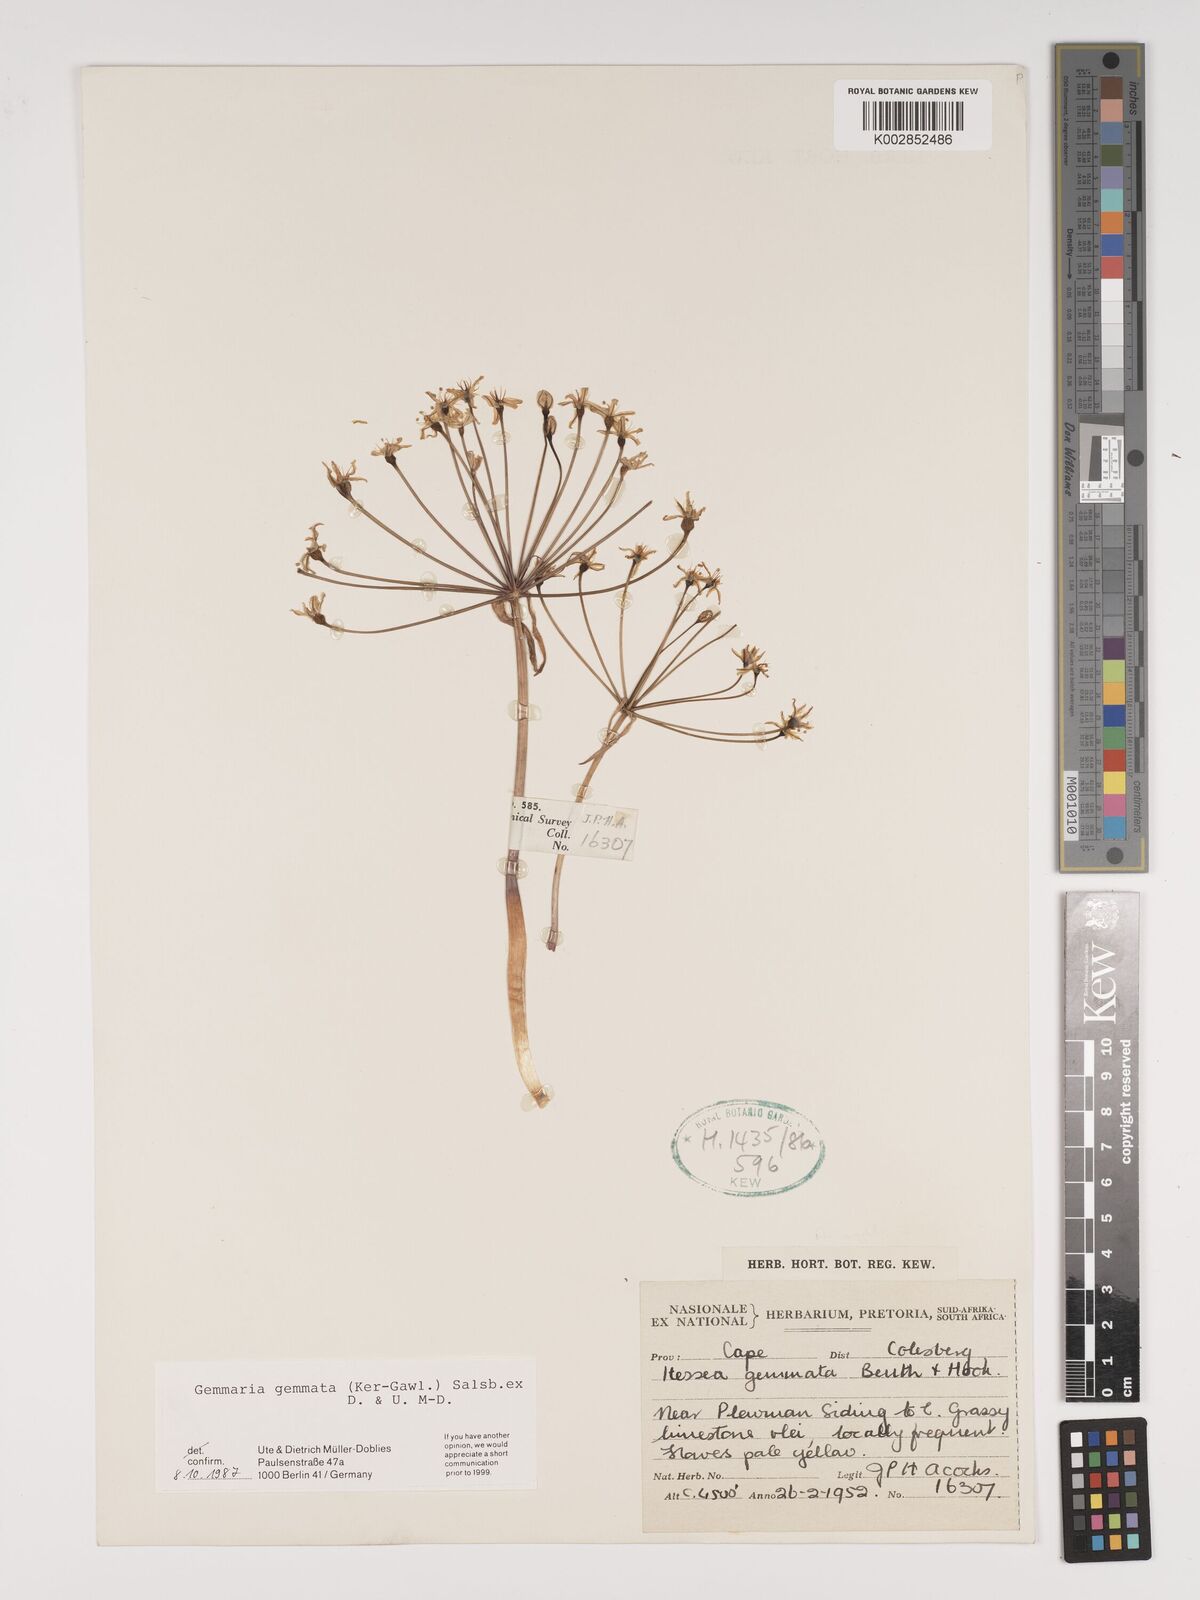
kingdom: Plantae
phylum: Tracheophyta
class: Liliopsida
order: Asparagales
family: Amaryllidaceae
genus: Strumaria
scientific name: Strumaria gemmata
